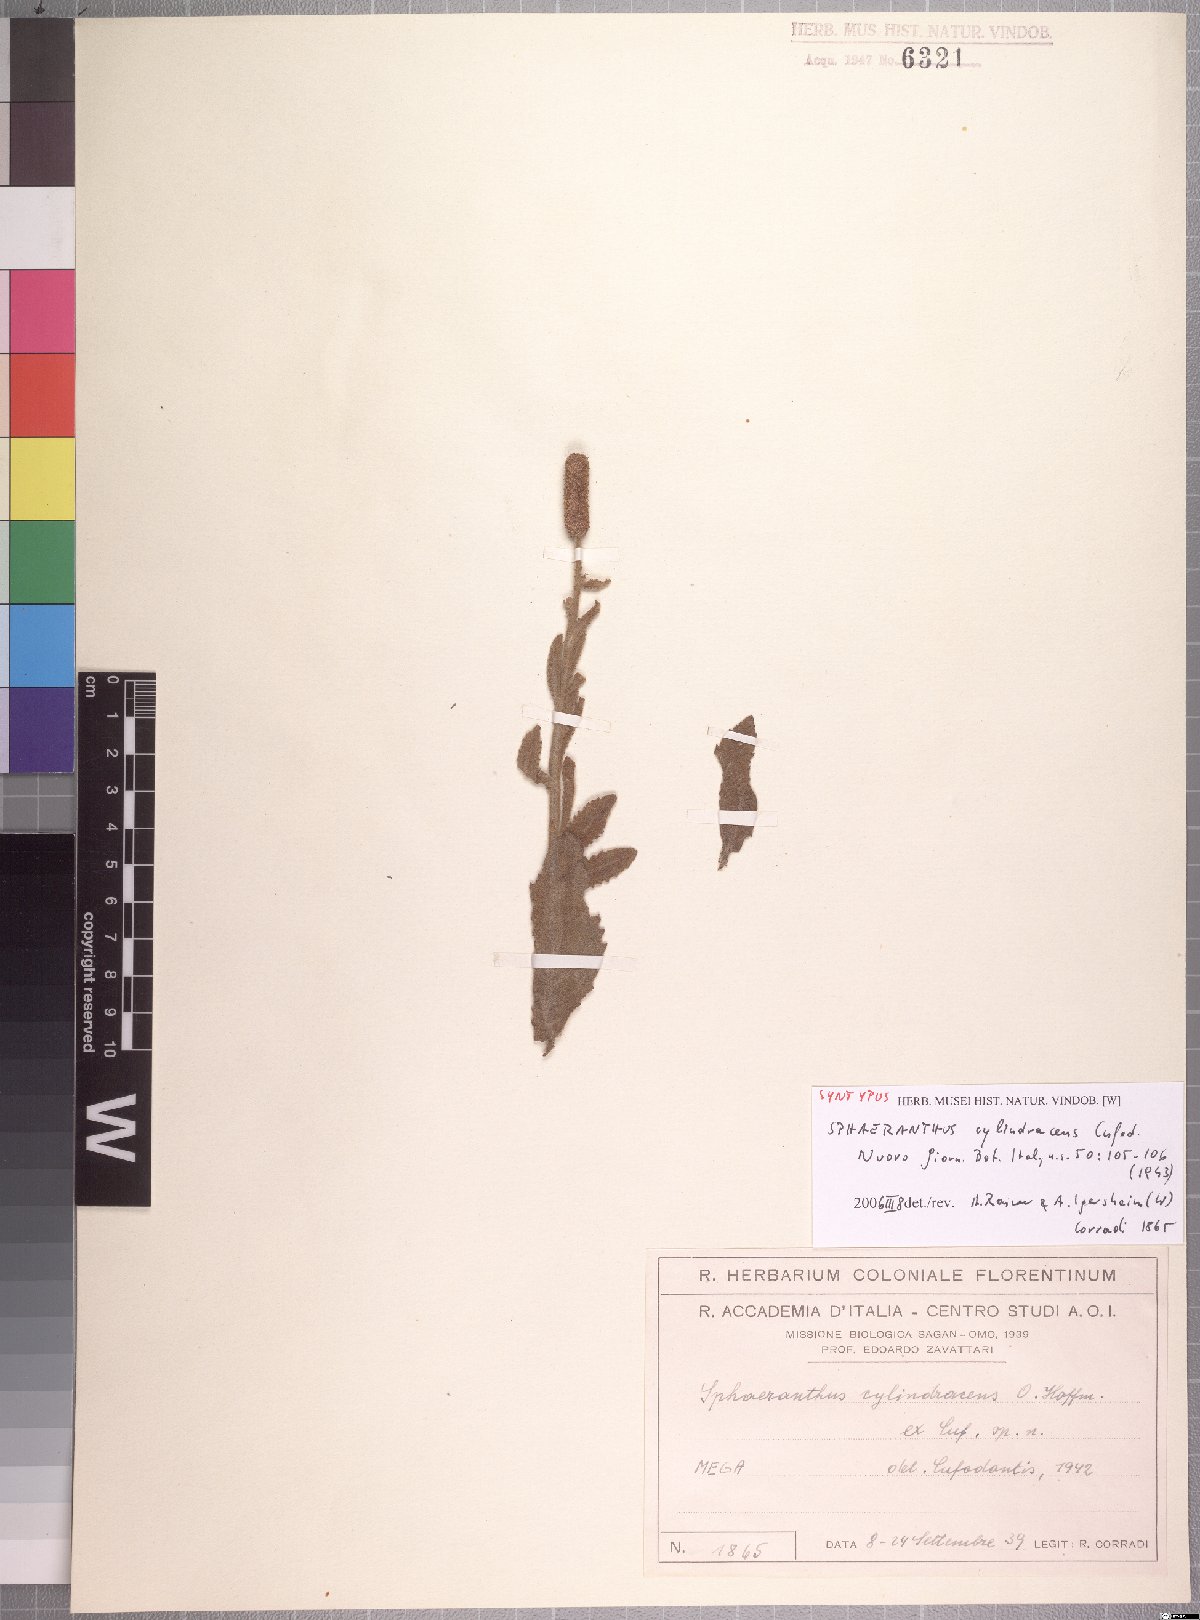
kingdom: Plantae
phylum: Tracheophyta
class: Magnoliopsida
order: Asterales
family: Asteraceae
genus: Sphaeranthus
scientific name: Sphaeranthus ukambensis
